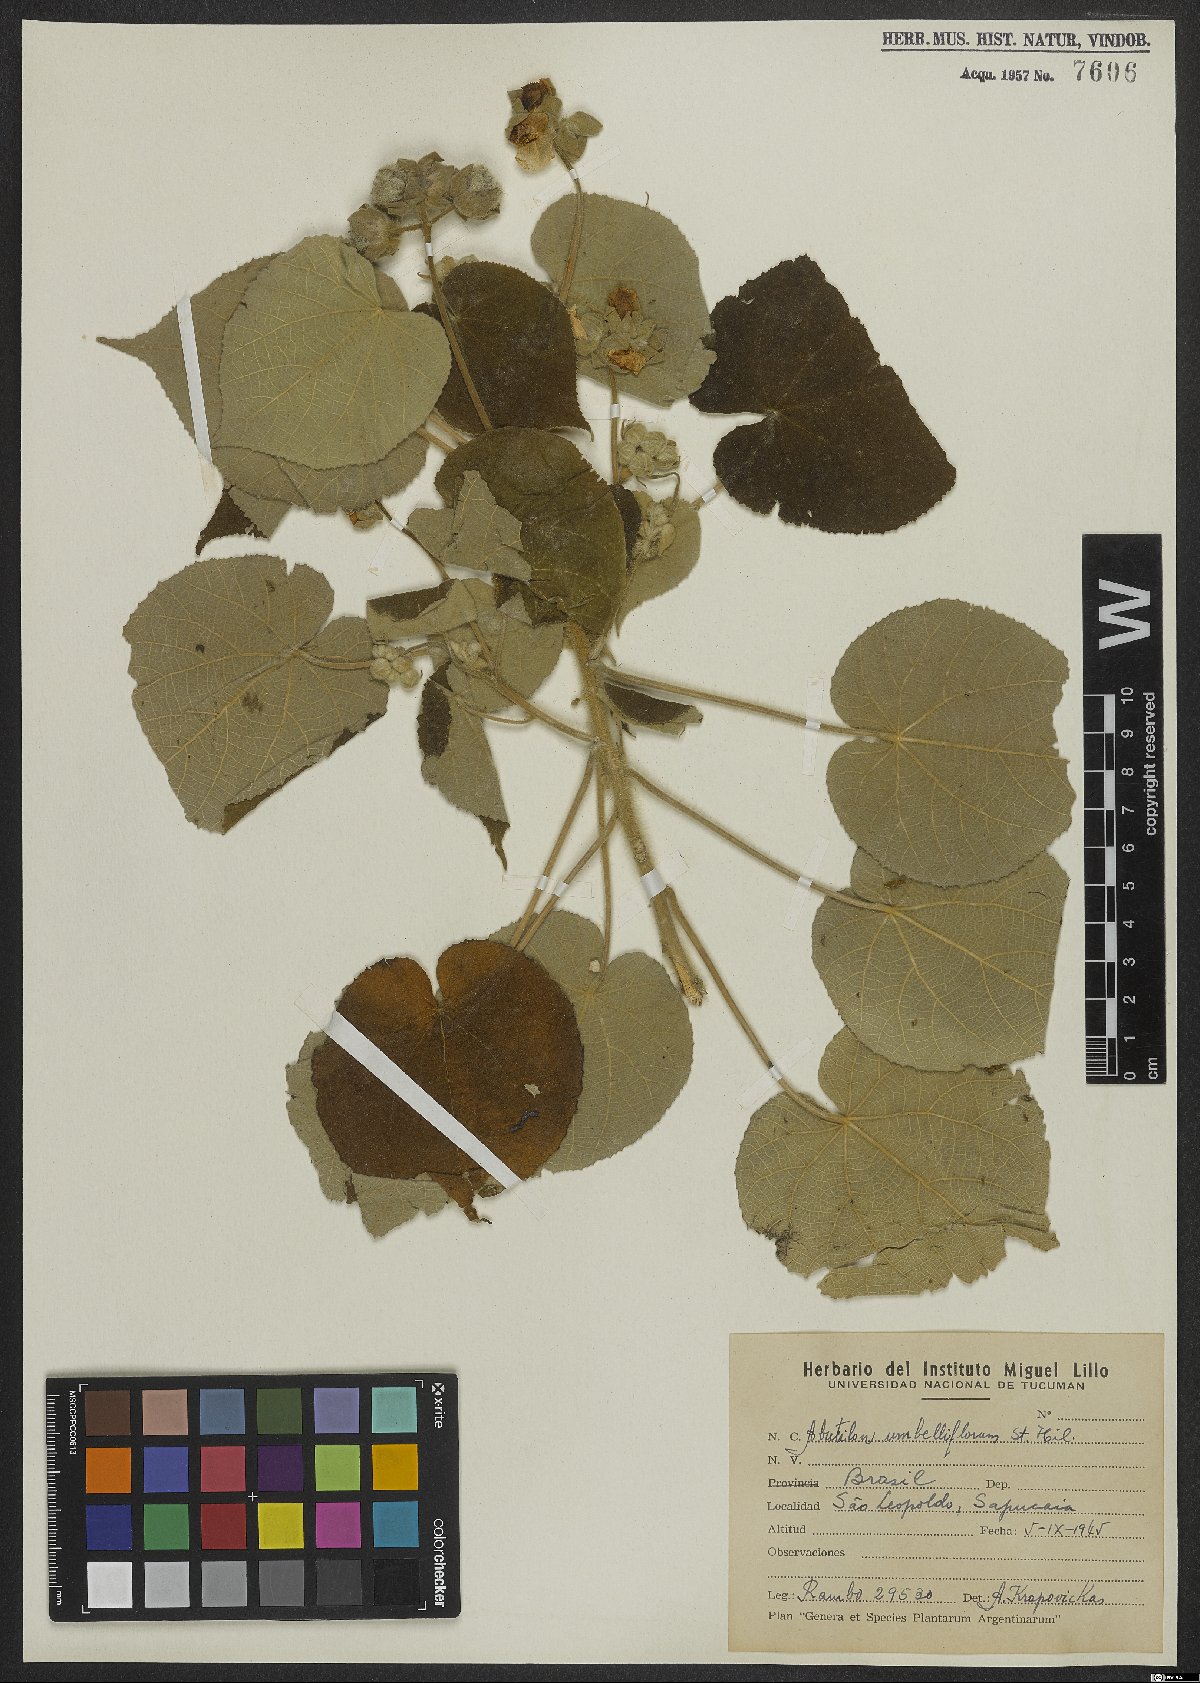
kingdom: Plantae
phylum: Tracheophyta
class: Magnoliopsida
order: Malvales
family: Malvaceae
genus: Abutilon
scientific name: Abutilon umbelliflorum
